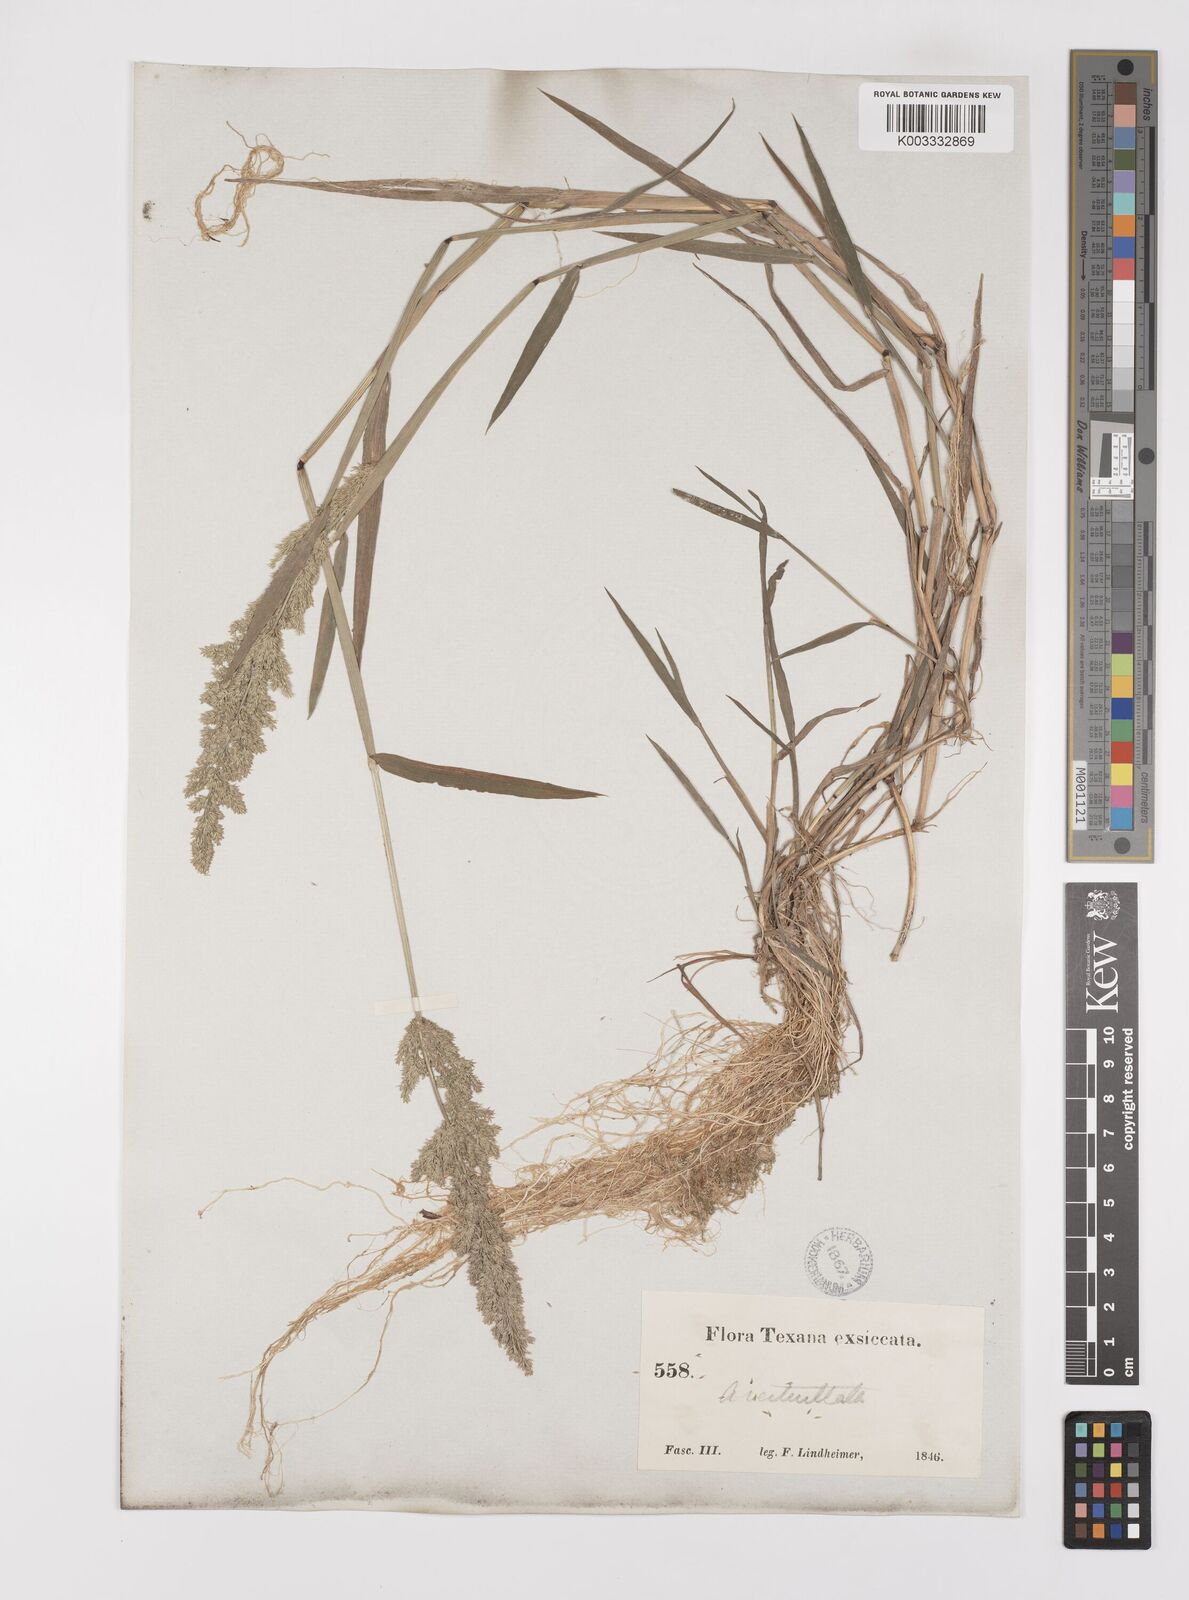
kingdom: Plantae
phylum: Tracheophyta
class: Liliopsida
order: Poales
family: Poaceae
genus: Polypogon
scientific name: Polypogon viridis
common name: Water bent
